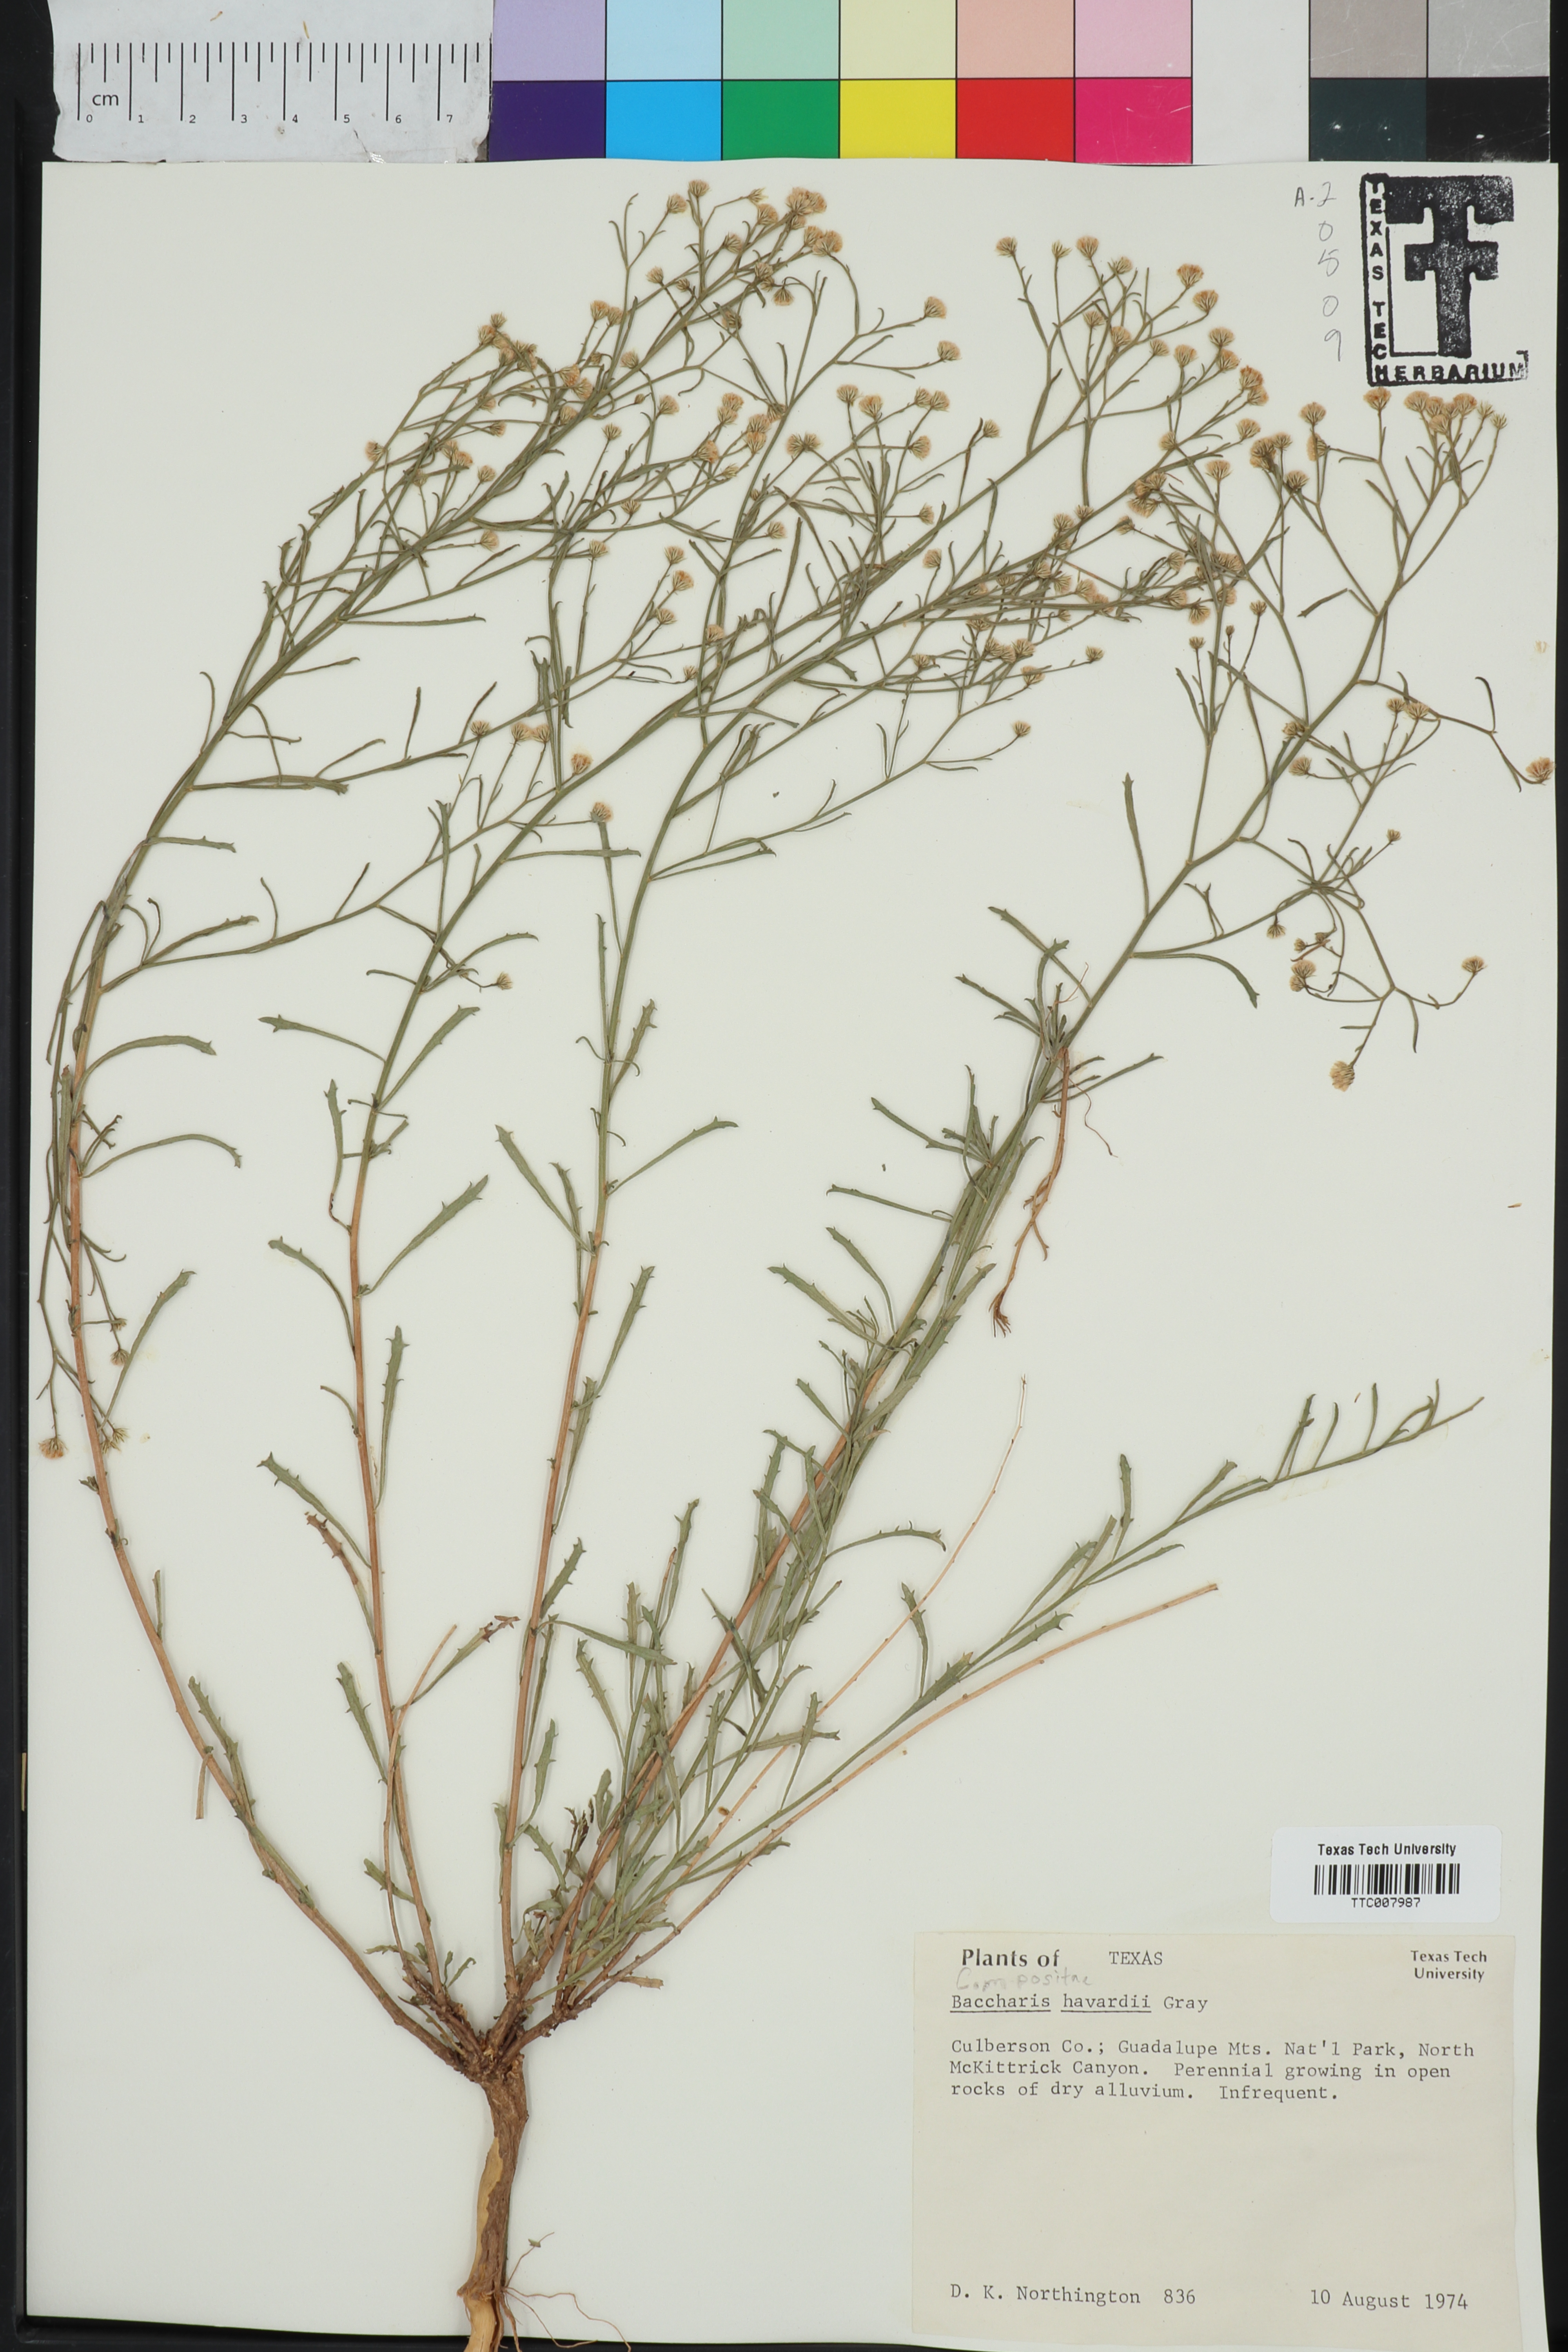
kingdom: Plantae
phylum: Tracheophyta
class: Magnoliopsida
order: Asterales
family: Asteraceae
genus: Baccharis
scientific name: Baccharis havardii
